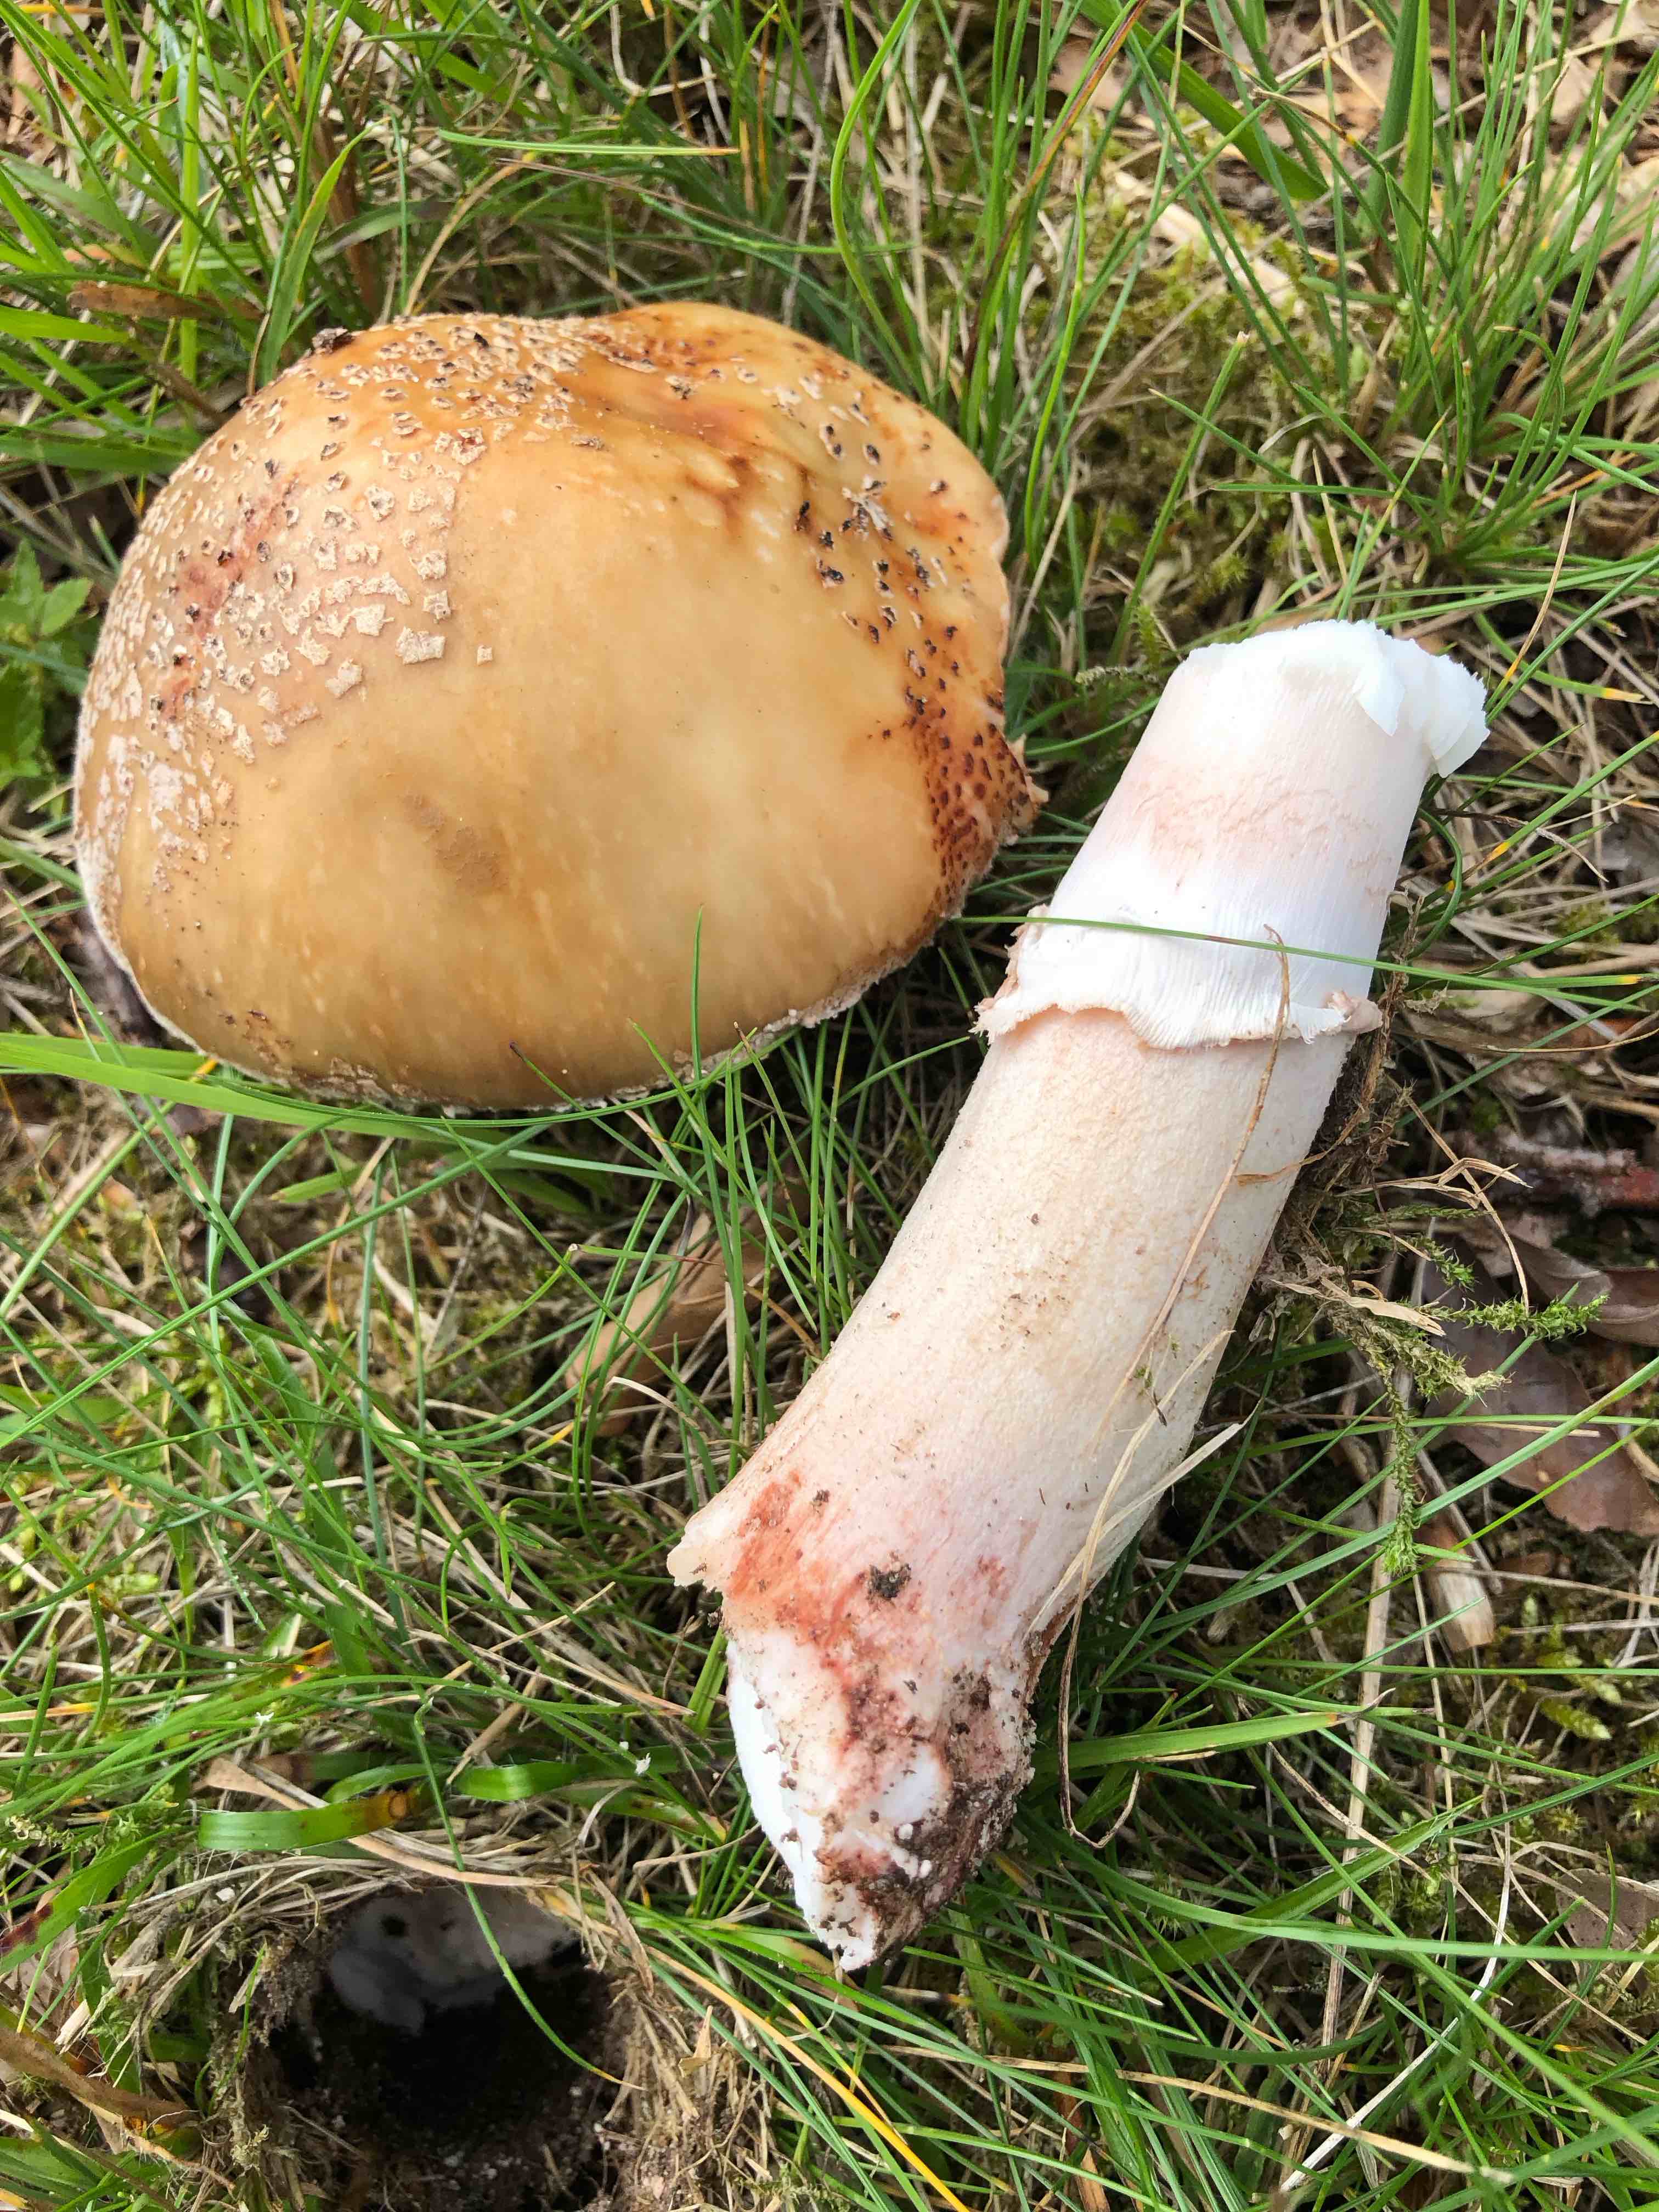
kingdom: Fungi
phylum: Basidiomycota
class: Agaricomycetes
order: Agaricales
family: Amanitaceae
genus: Amanita
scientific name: Amanita rubescens
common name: rødmende fluesvamp
